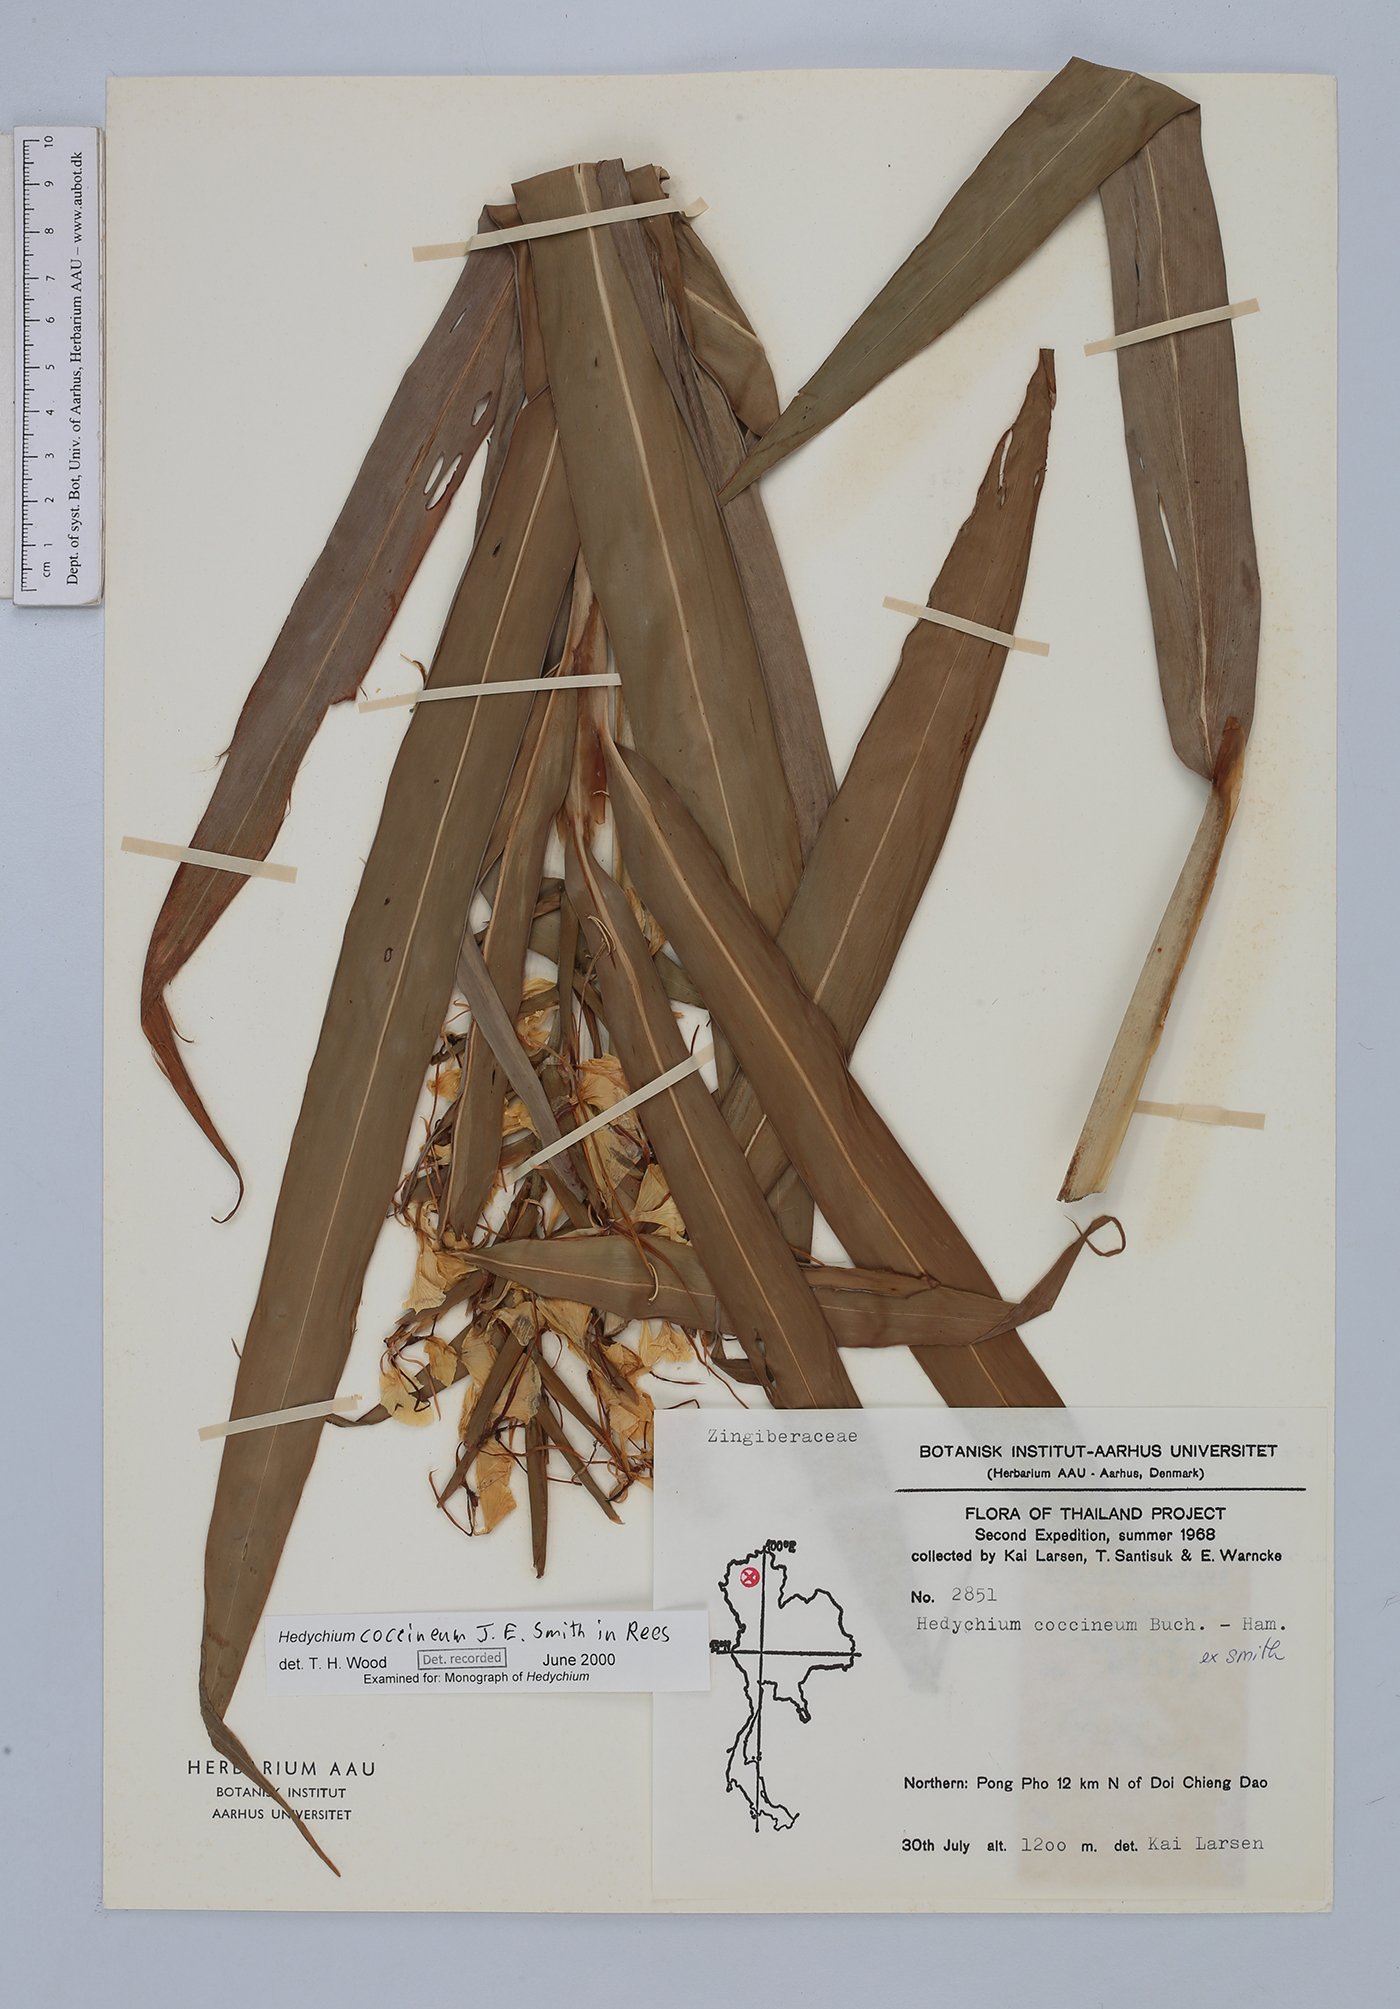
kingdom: Plantae
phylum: Tracheophyta
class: Liliopsida
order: Zingiberales
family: Zingiberaceae
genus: Hedychium
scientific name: Hedychium coccineum
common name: Red ginger-lily
